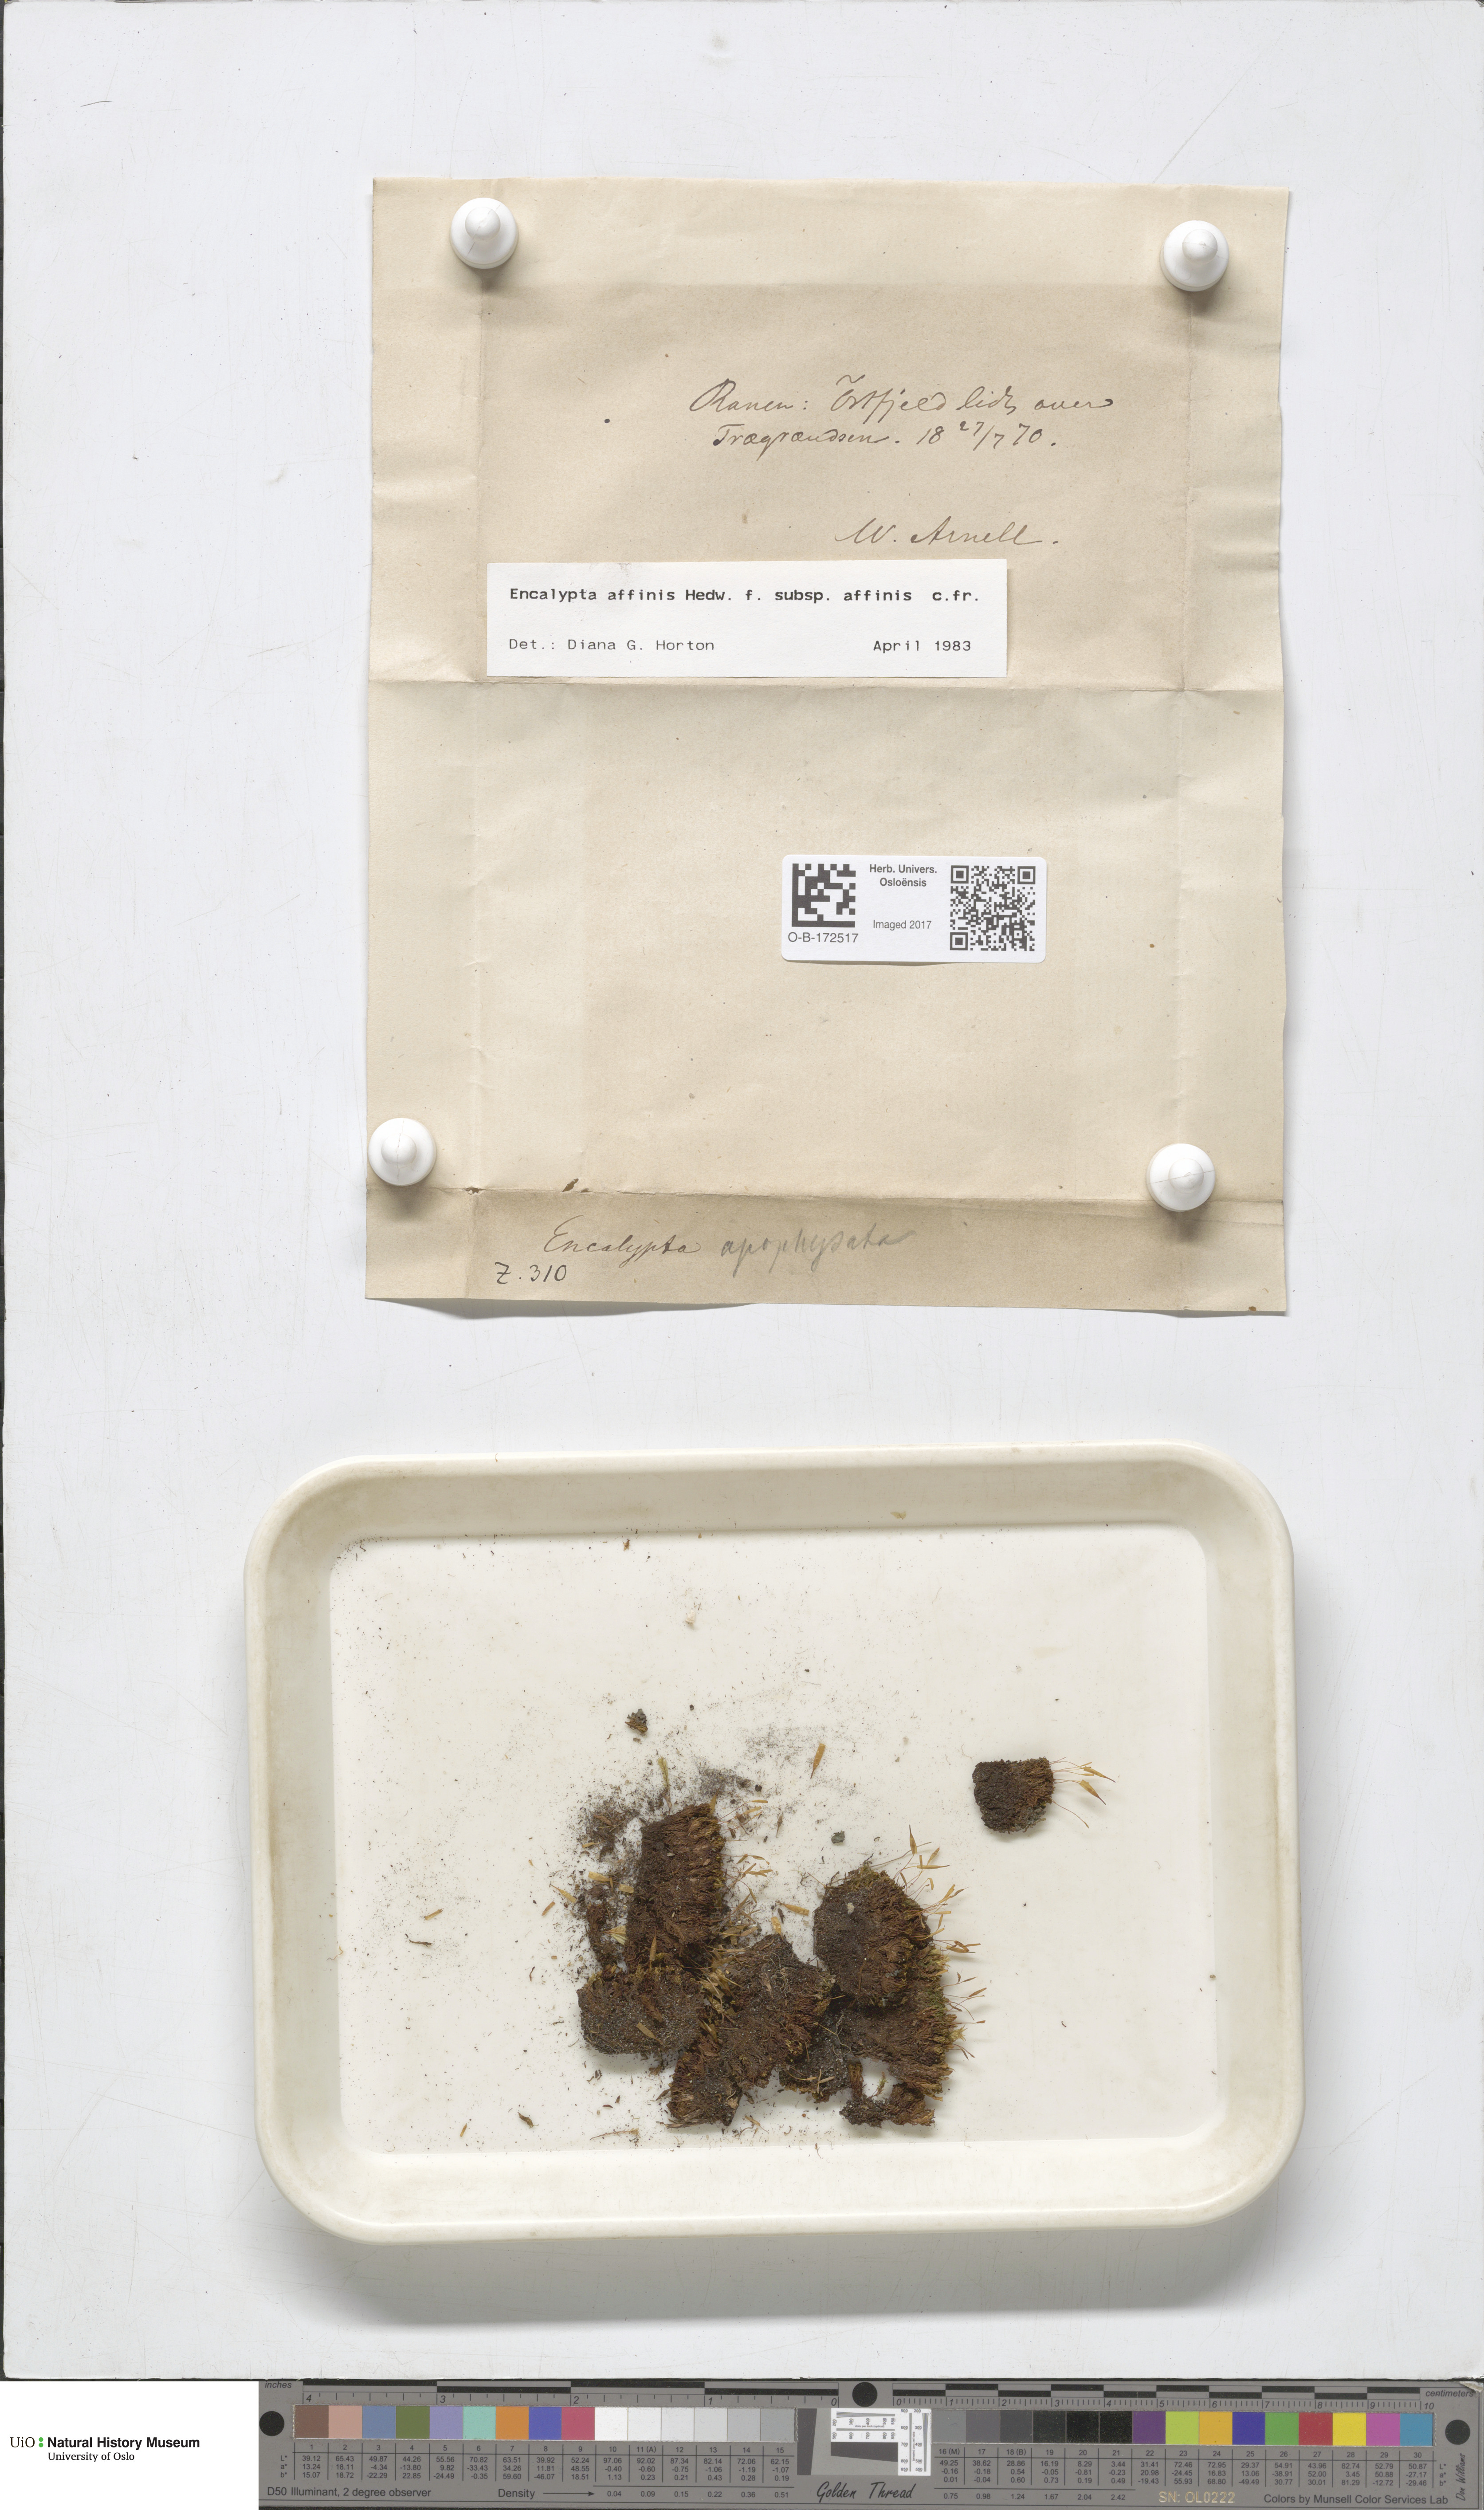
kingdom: Plantae
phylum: Bryophyta
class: Bryopsida
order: Encalyptales
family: Encalyptaceae
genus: Encalypta
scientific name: Encalypta affinis
